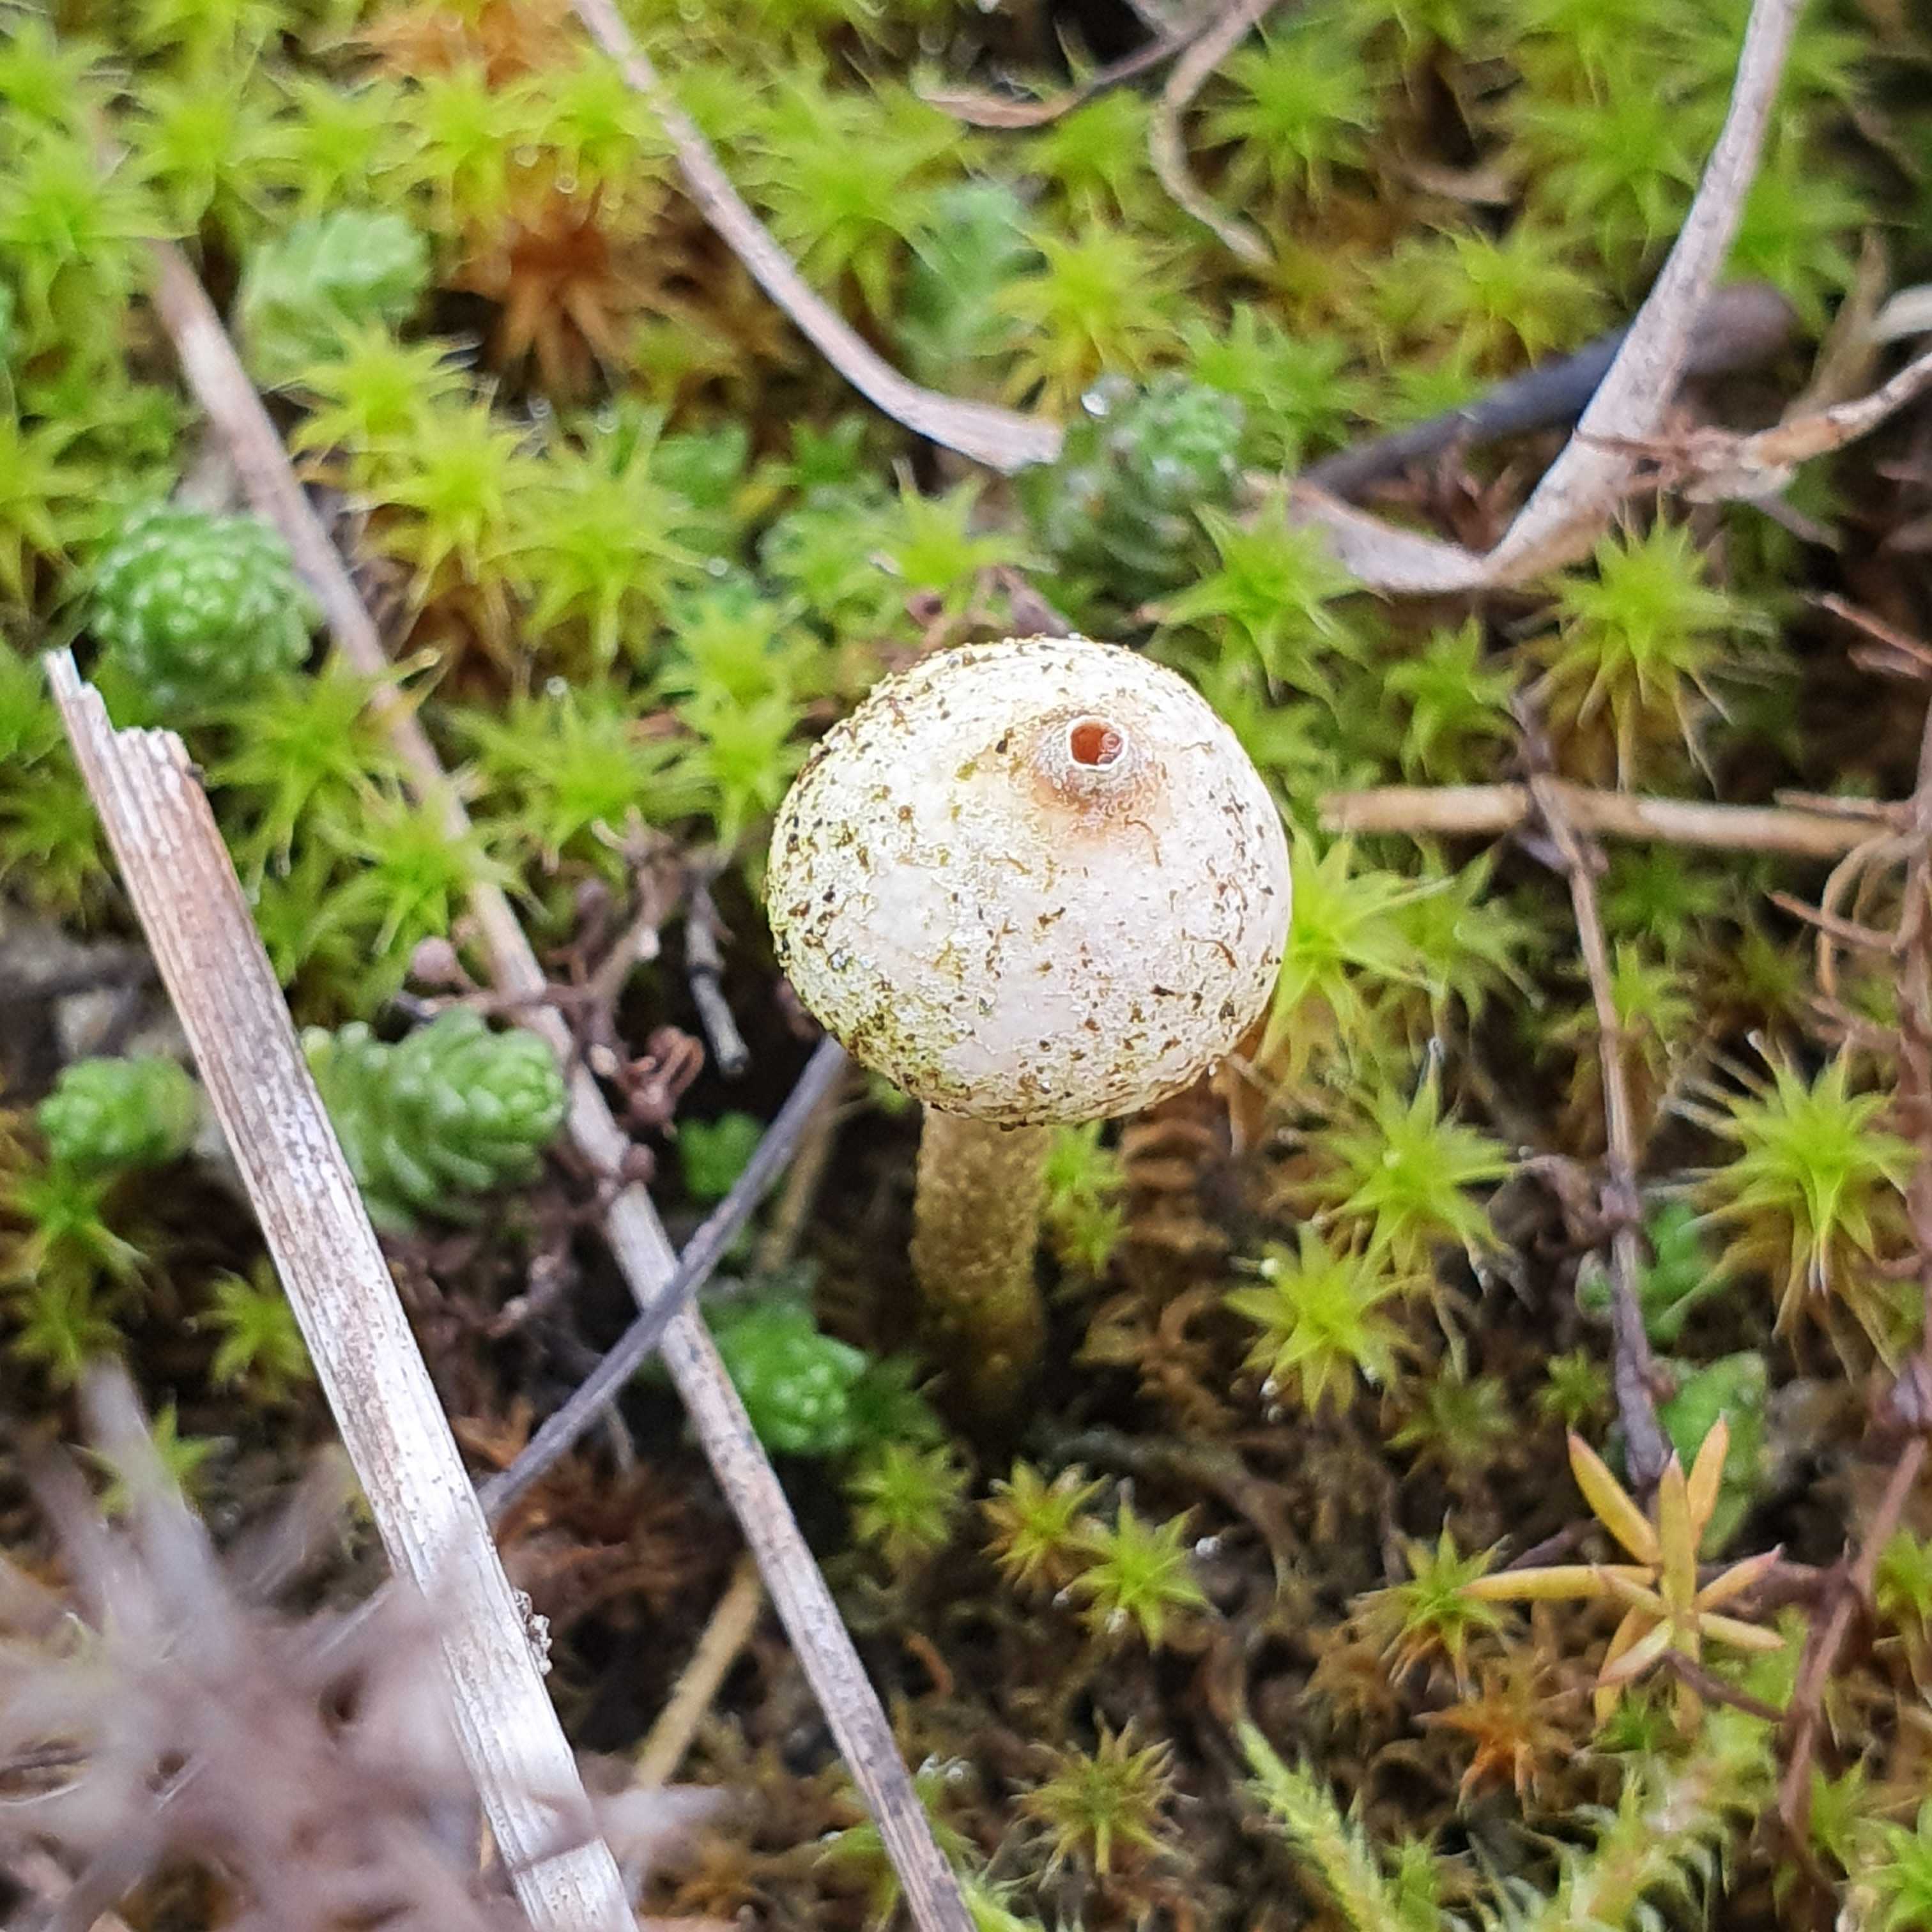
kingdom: Fungi
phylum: Basidiomycota
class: Agaricomycetes
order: Agaricales
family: Agaricaceae
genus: Tulostoma
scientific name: Tulostoma brumale
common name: vinter-stilkbovist
